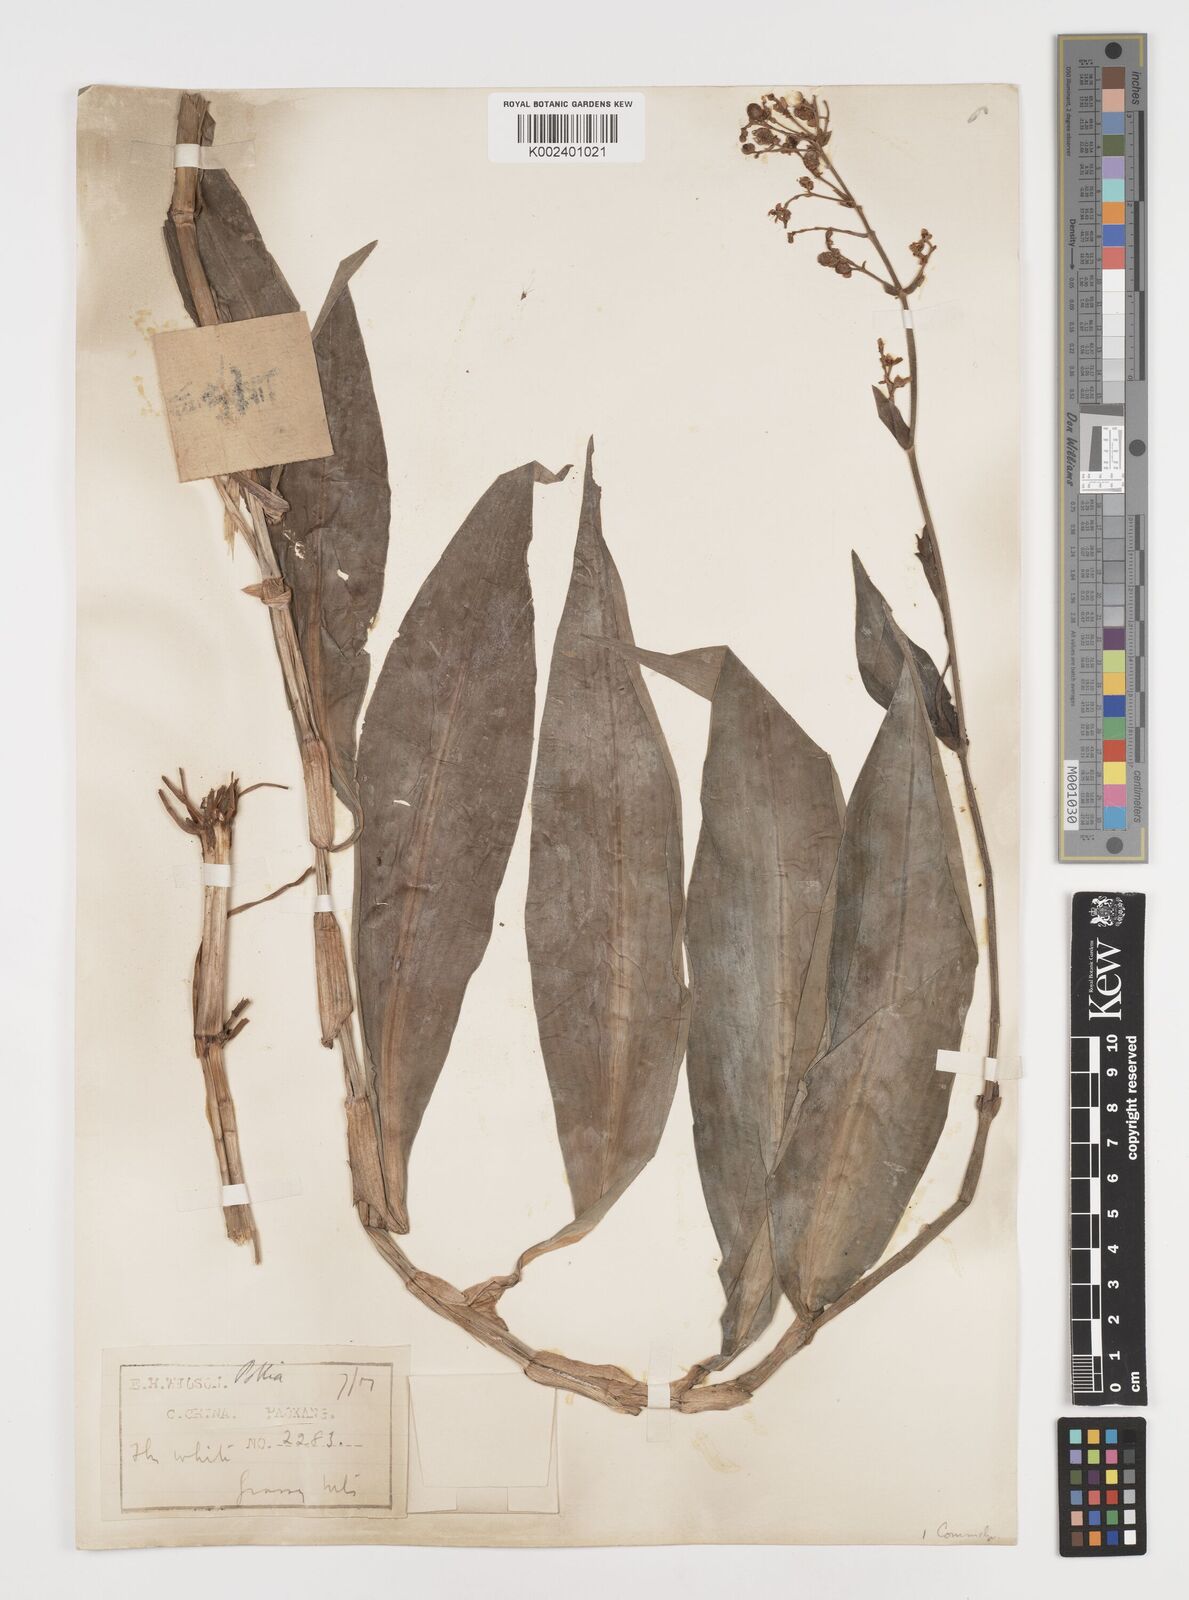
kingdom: Plantae
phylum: Tracheophyta
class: Liliopsida
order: Commelinales
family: Commelinaceae
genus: Pollia
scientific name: Pollia
